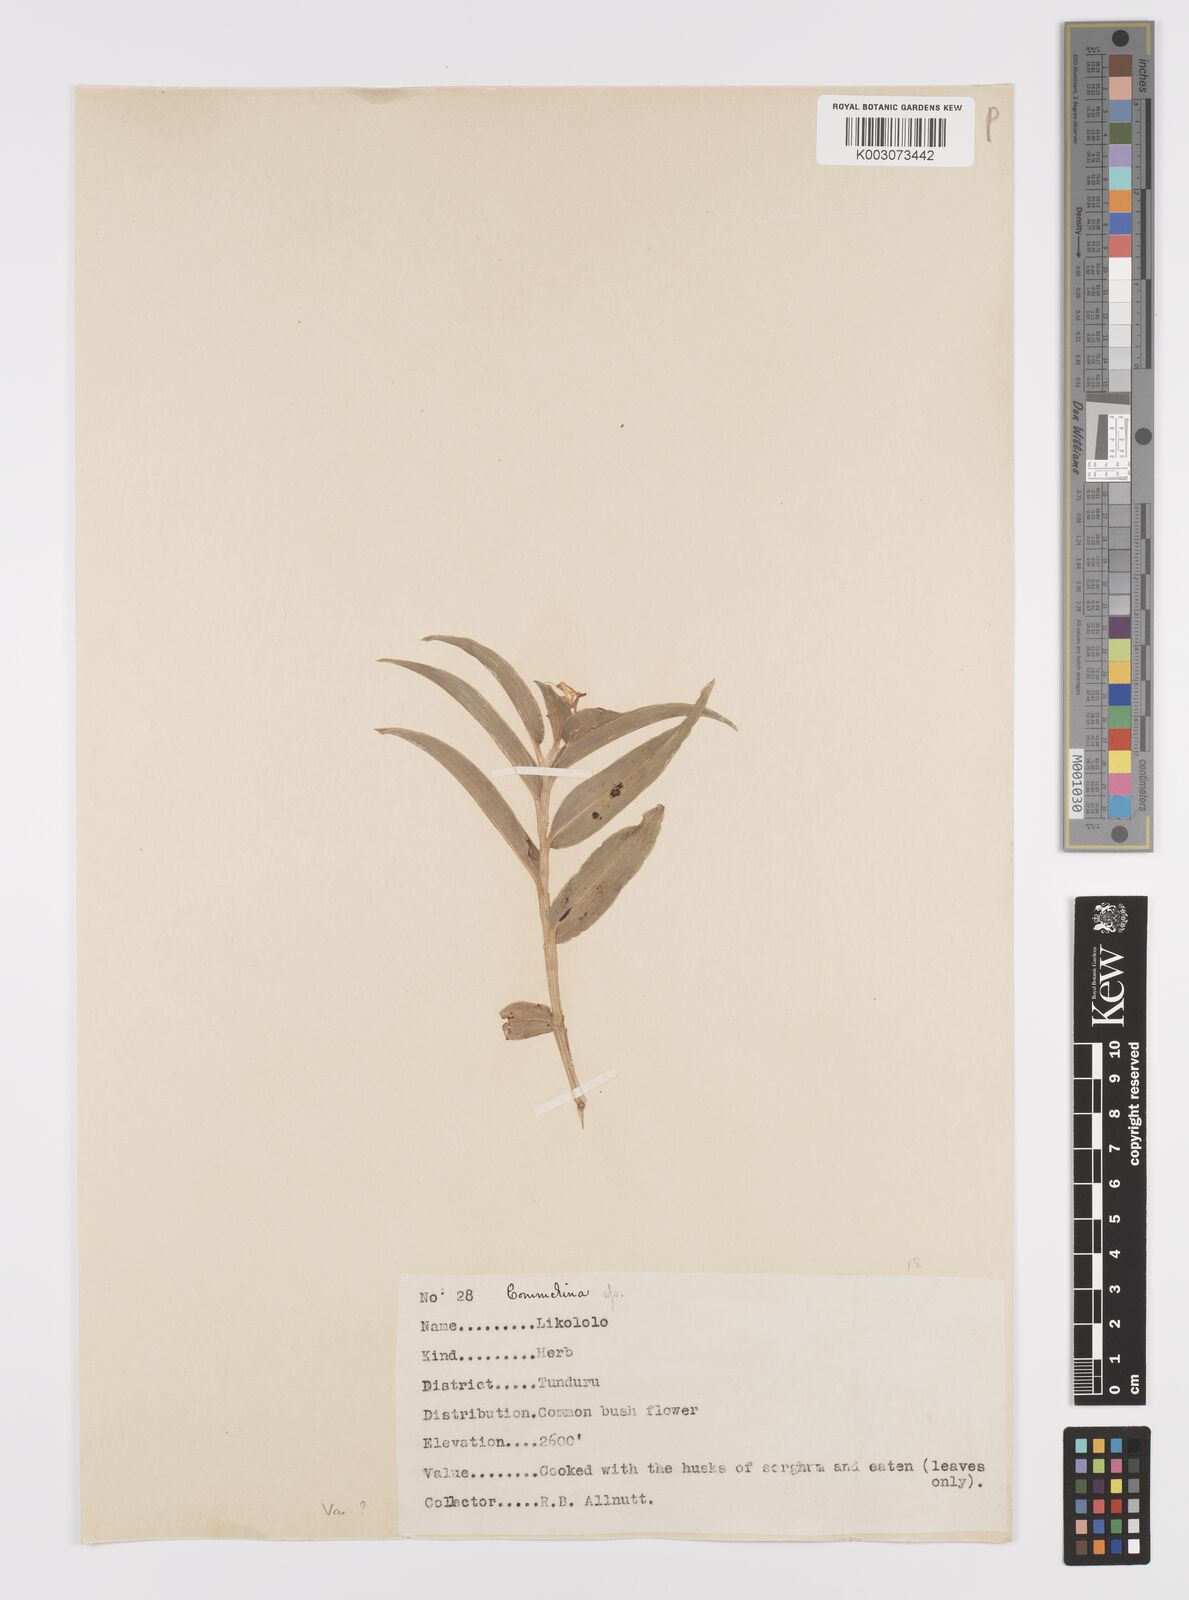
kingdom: Plantae
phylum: Tracheophyta
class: Liliopsida
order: Commelinales
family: Commelinaceae
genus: Commelina
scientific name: Commelina africana
